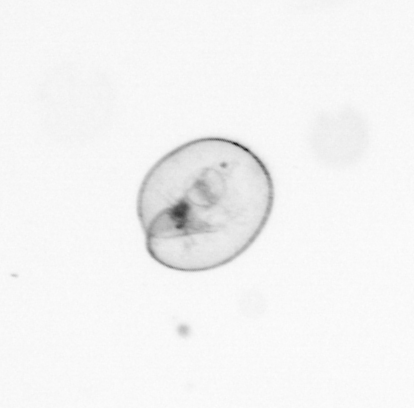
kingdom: Chromista
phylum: Myzozoa
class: Dinophyceae
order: Noctilucales
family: Noctilucaceae
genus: Noctiluca
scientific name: Noctiluca scintillans
